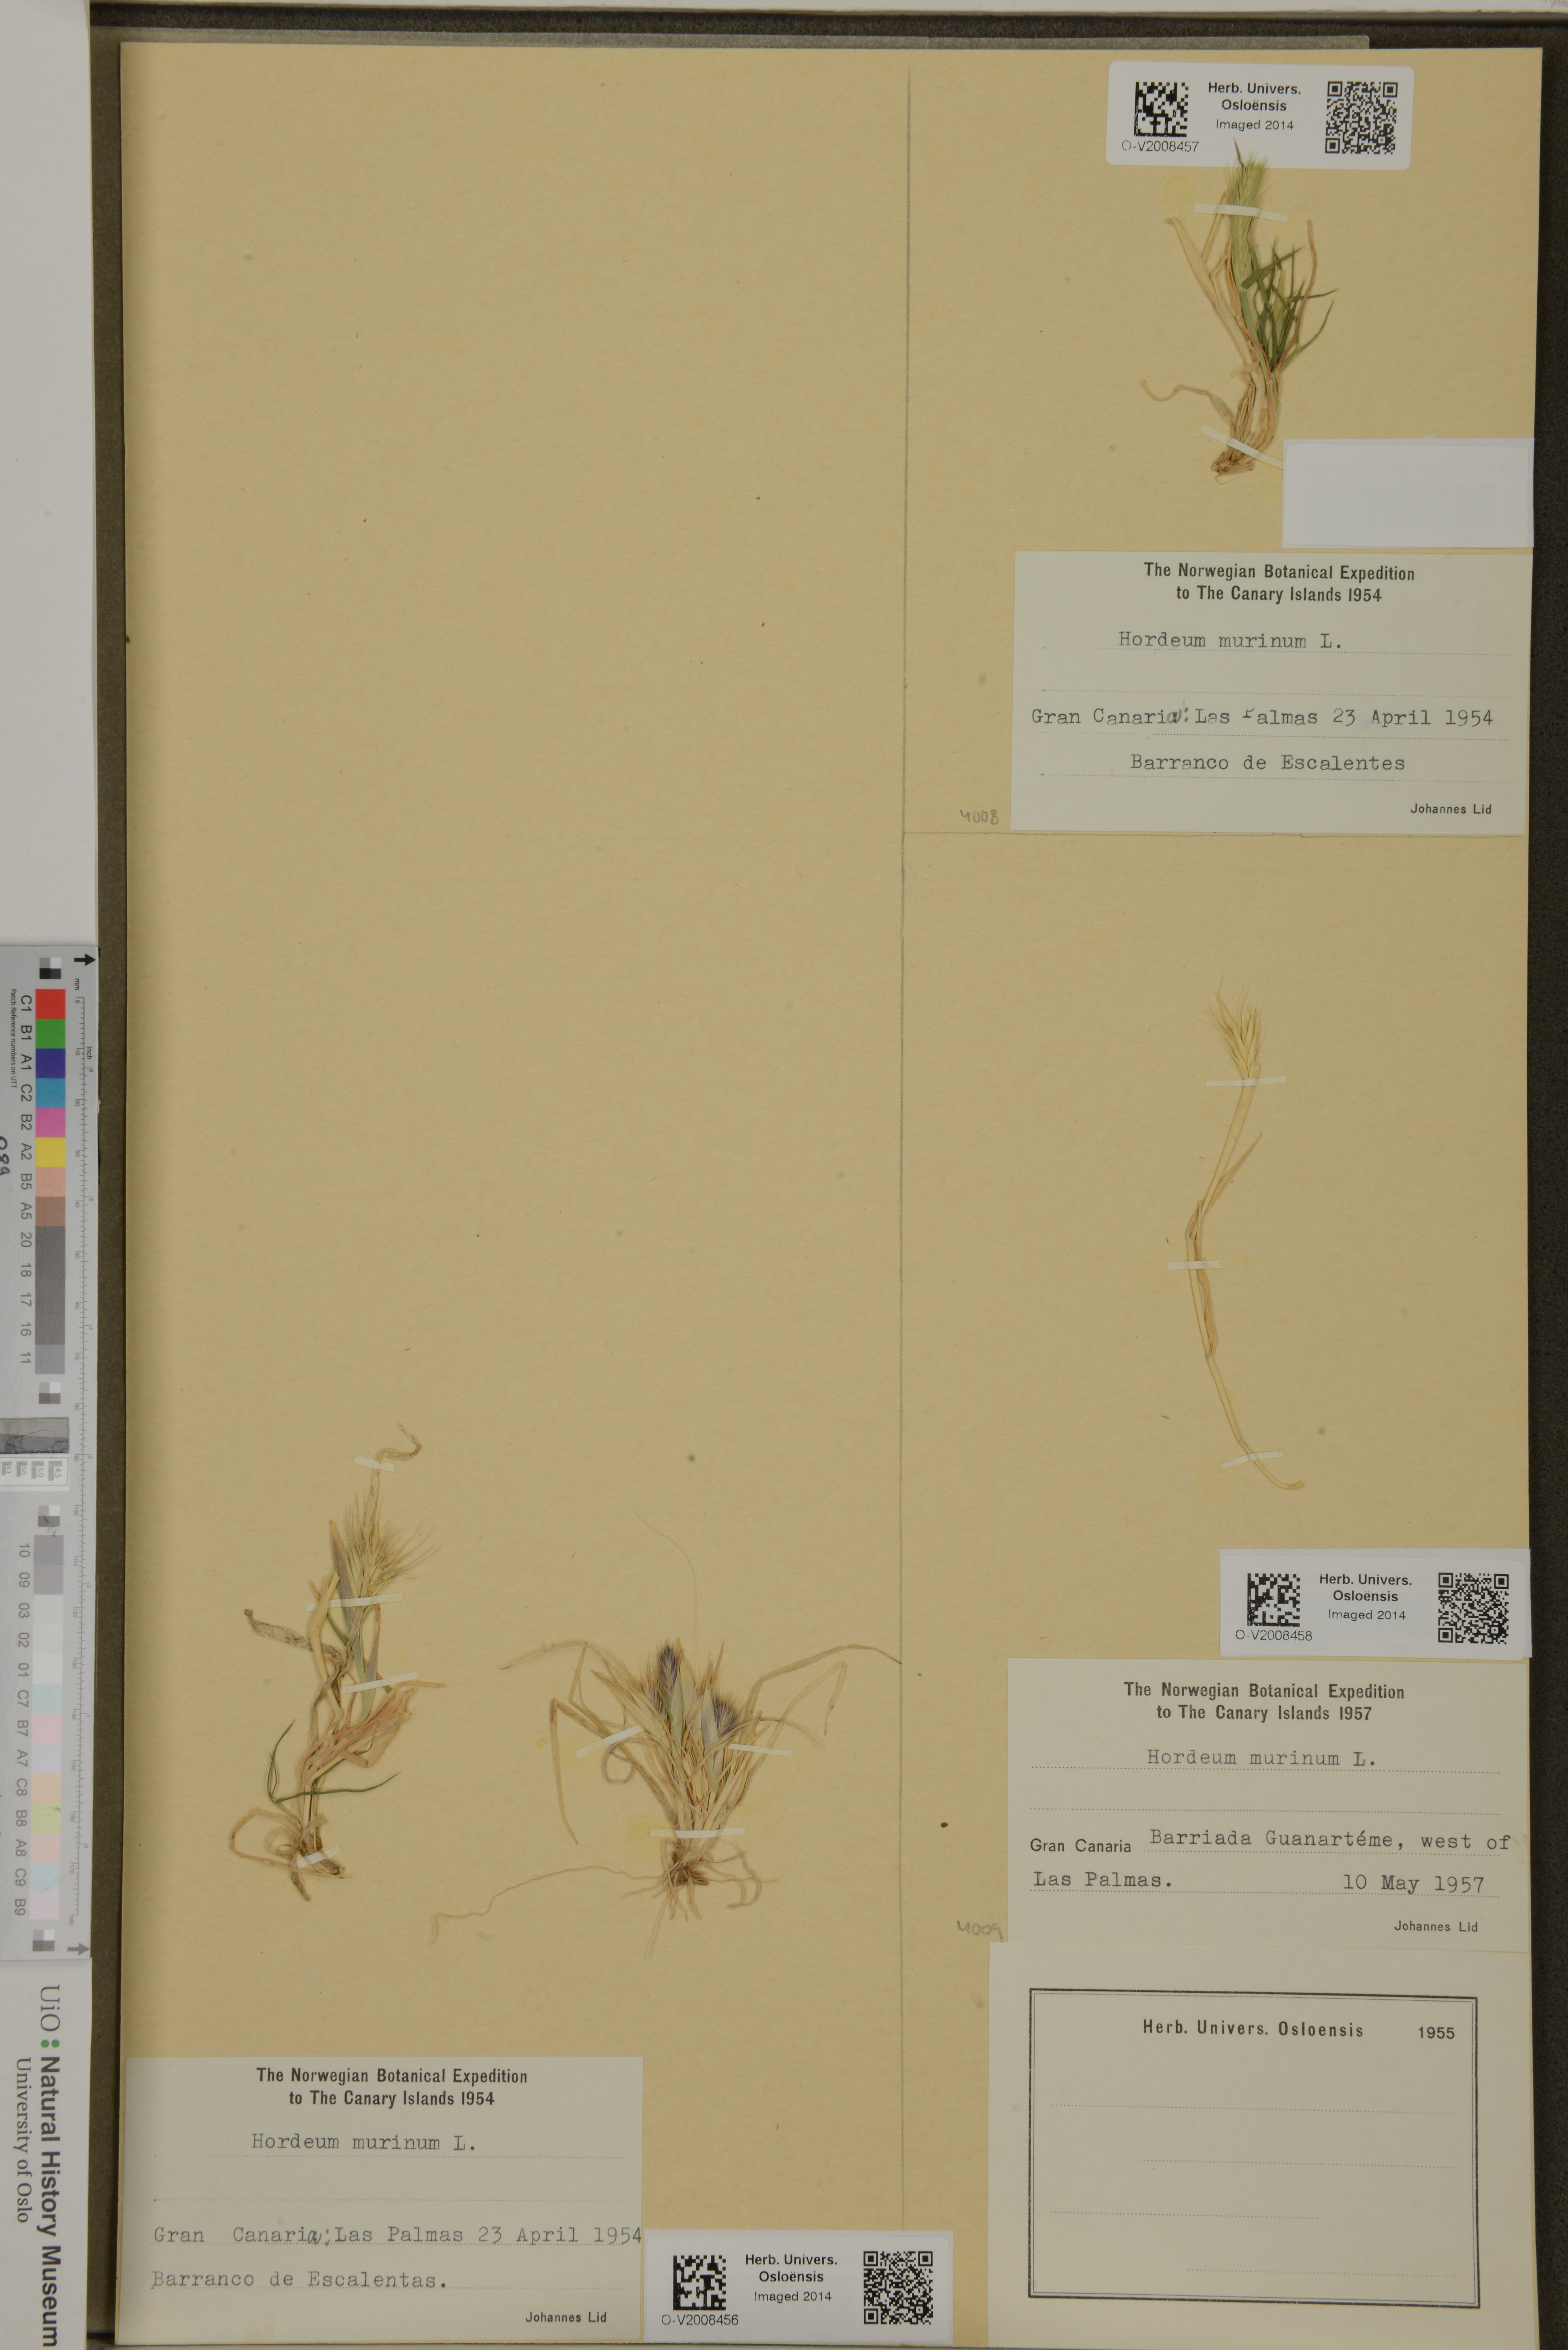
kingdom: Plantae
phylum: Tracheophyta
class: Liliopsida
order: Poales
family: Poaceae
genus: Hordeum
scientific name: Hordeum murinum
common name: Wall barley
